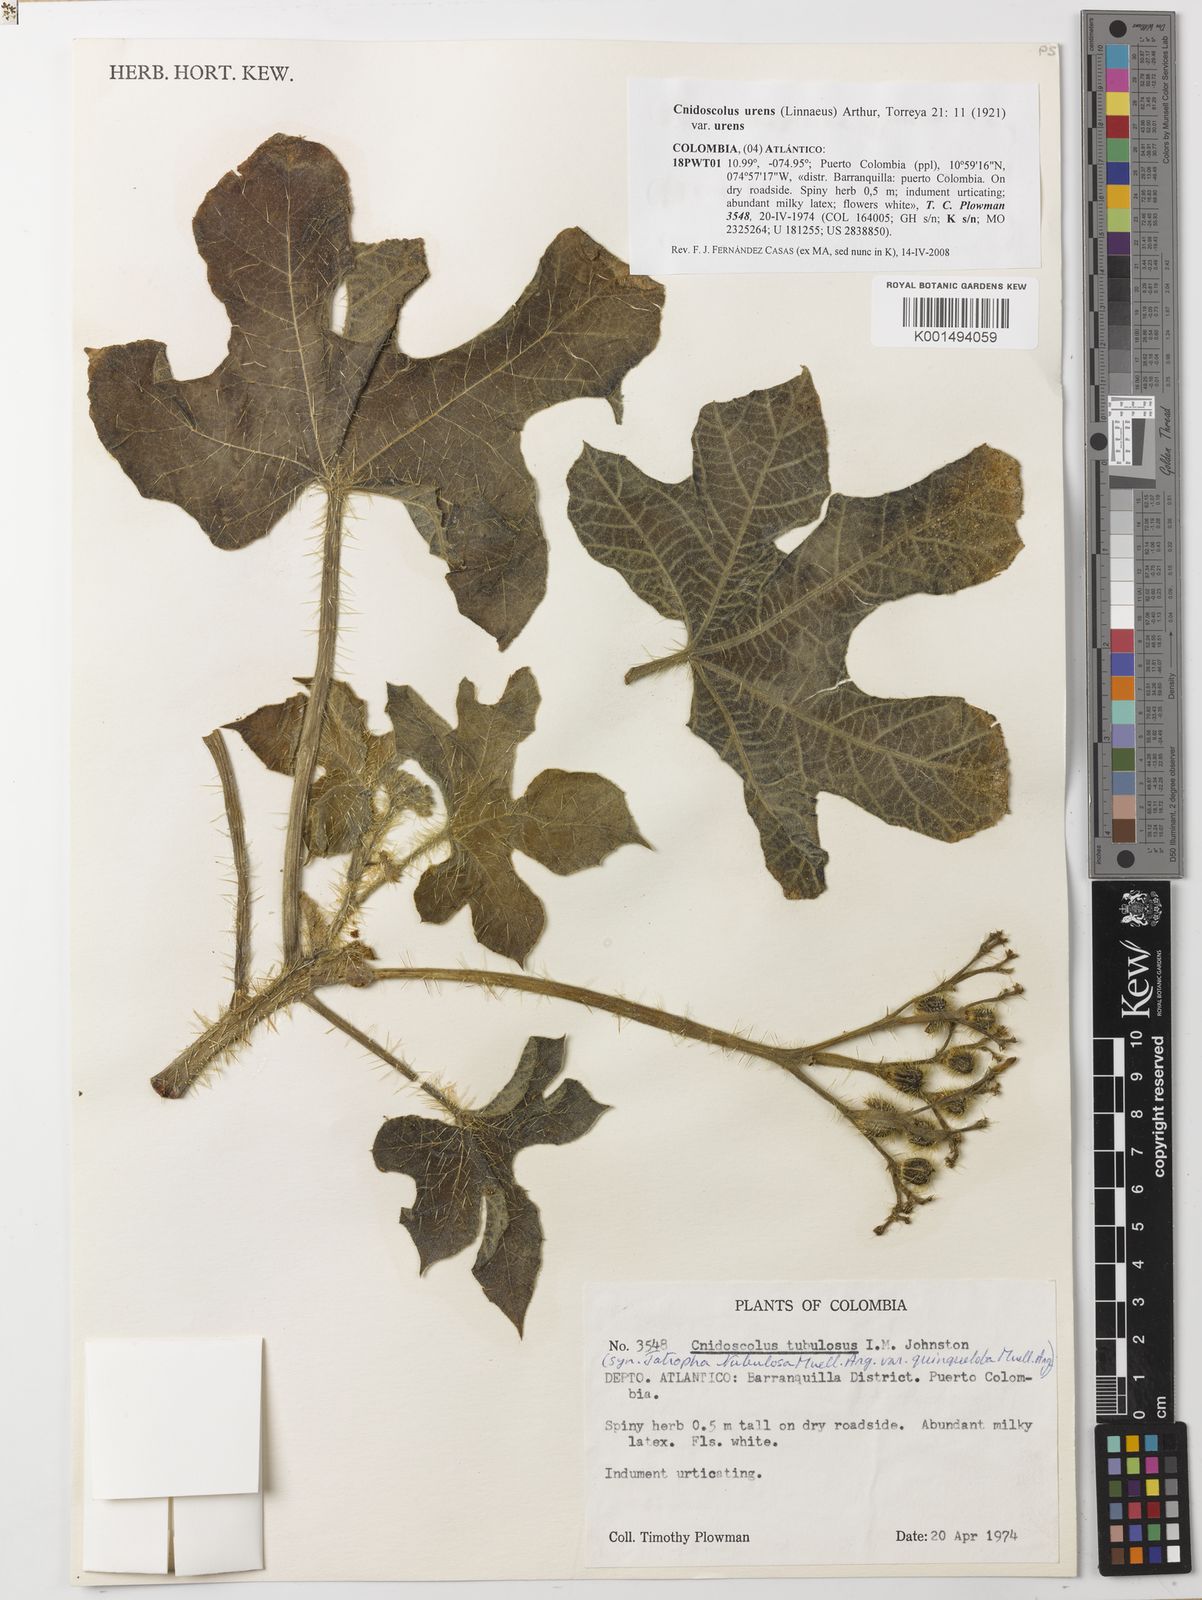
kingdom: Plantae
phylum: Tracheophyta
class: Magnoliopsida
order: Malpighiales
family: Euphorbiaceae
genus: Cnidoscolus
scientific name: Cnidoscolus urens
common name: Bull-nettle
